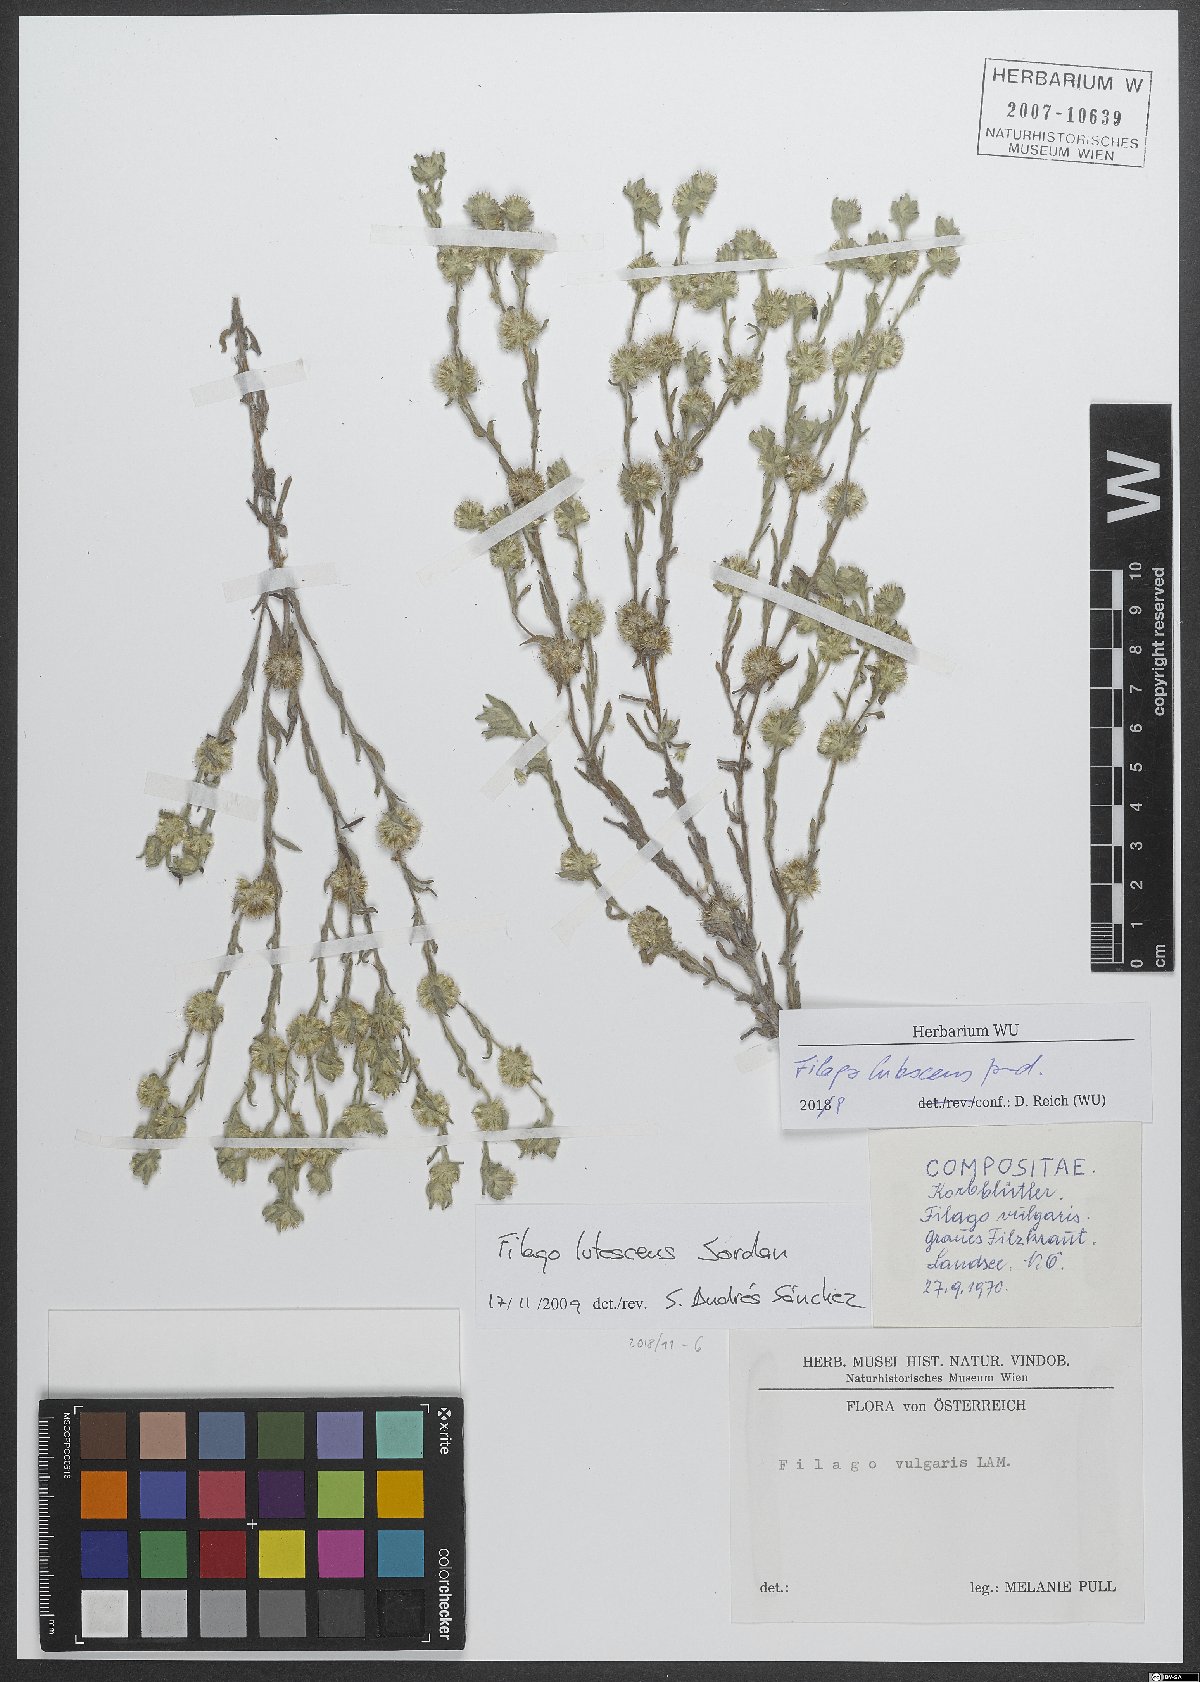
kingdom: Plantae
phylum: Tracheophyta
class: Magnoliopsida
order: Asterales
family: Asteraceae
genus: Filago
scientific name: Filago lutescens
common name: Red-tipped cudweed
